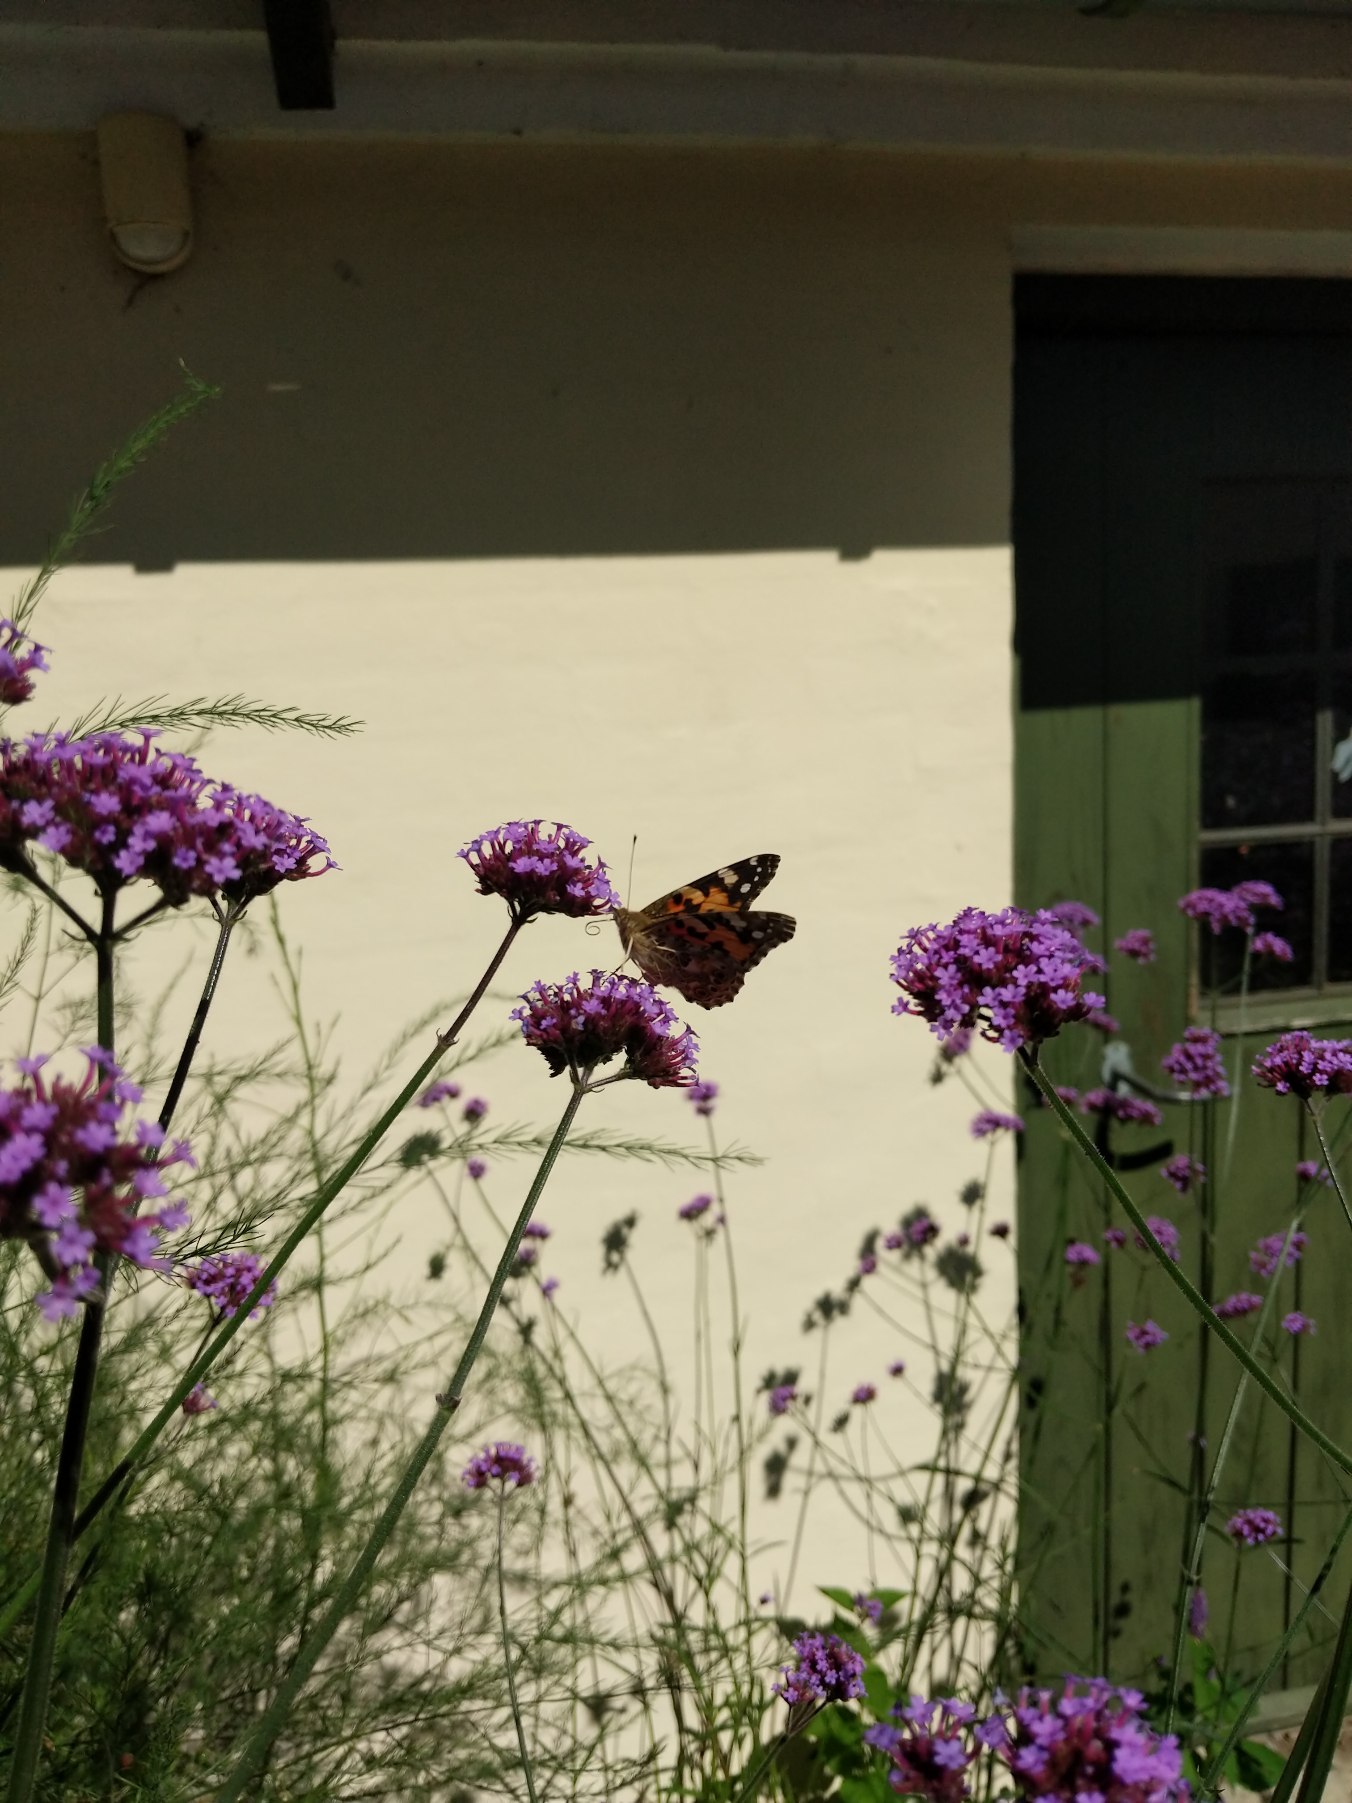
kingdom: Animalia
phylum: Arthropoda
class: Insecta
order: Lepidoptera
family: Nymphalidae
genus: Vanessa
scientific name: Vanessa cardui
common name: Tidselsommerfugl
